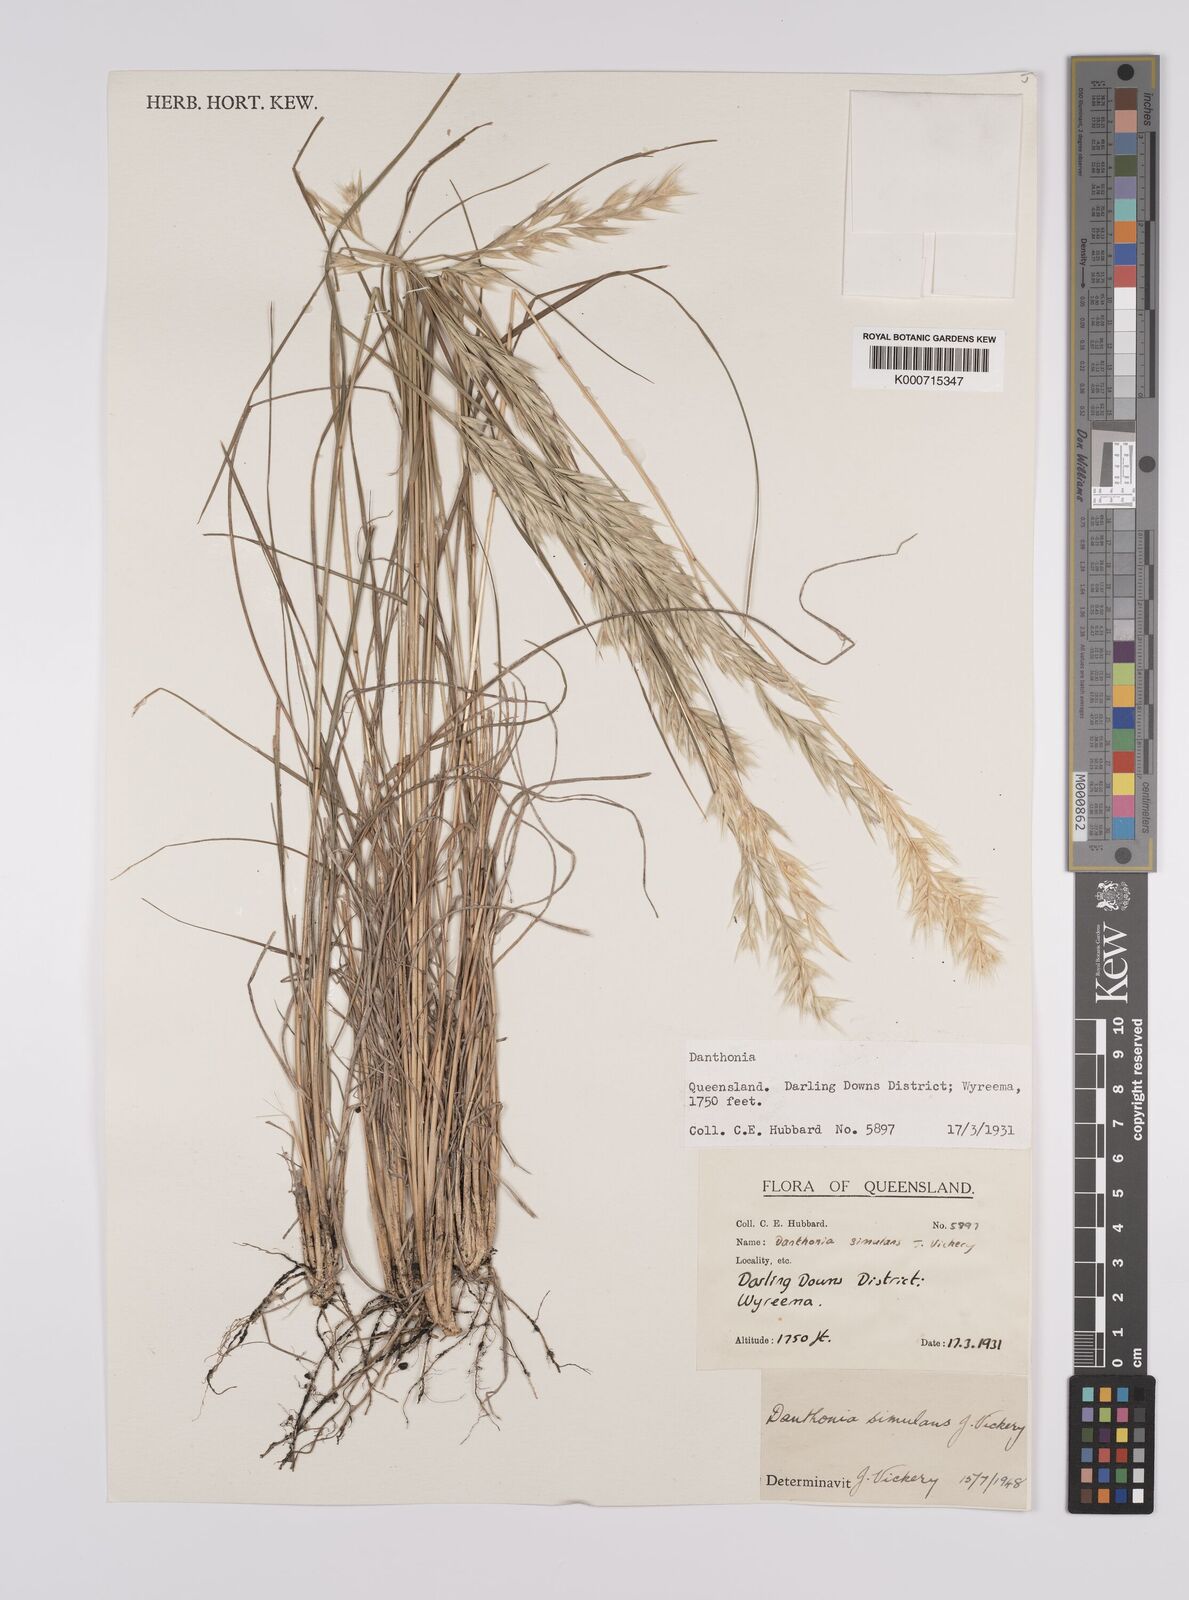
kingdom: Plantae
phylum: Tracheophyta
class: Liliopsida
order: Poales
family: Poaceae
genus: Rytidosperma
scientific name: Rytidosperma bipartitum
